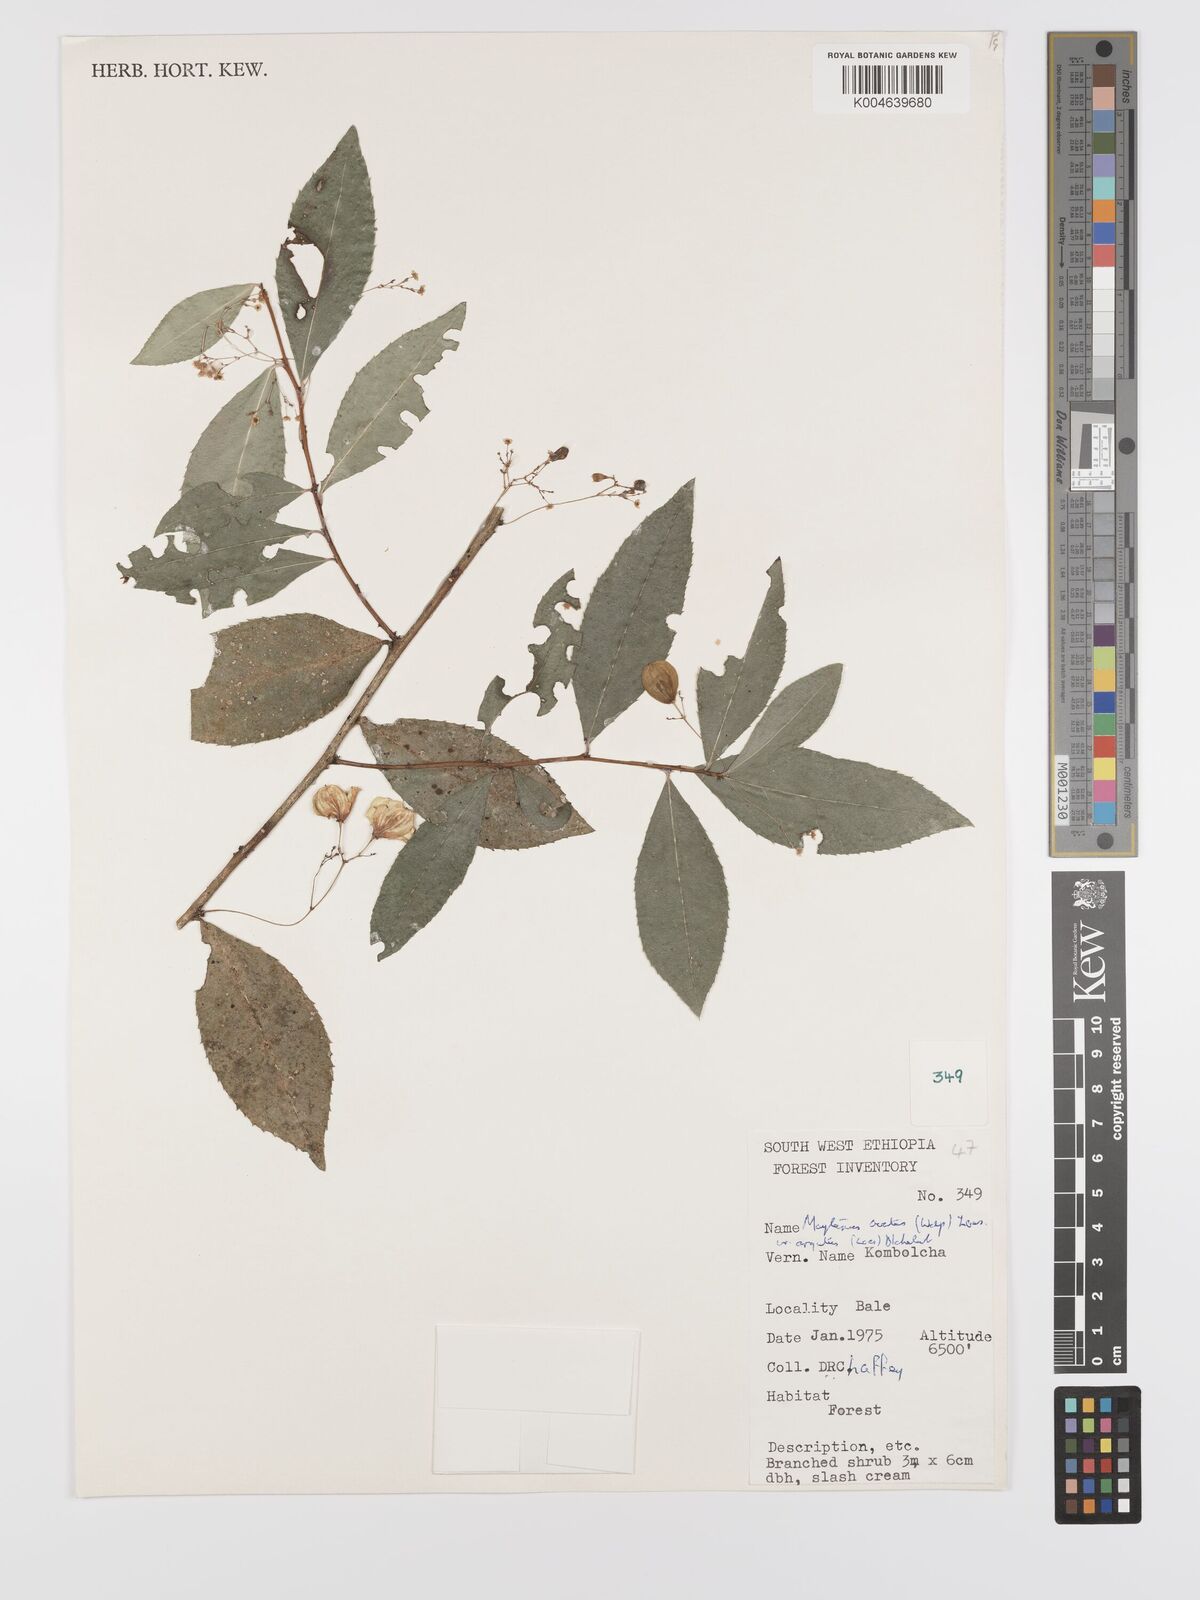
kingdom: Plantae
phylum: Tracheophyta
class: Magnoliopsida
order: Celastrales
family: Celastraceae
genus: Gymnosporia
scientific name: Gymnosporia gracilipes
